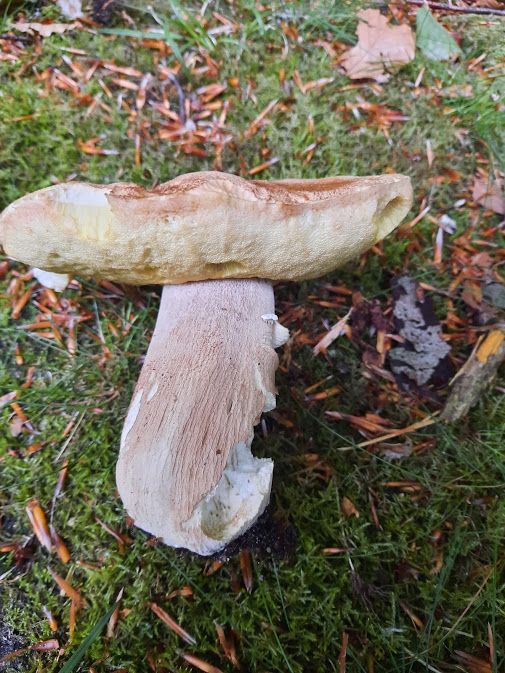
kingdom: Fungi
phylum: Basidiomycota
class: Agaricomycetes
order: Boletales
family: Boletaceae
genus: Boletus
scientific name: Boletus reticulatus
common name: sommer-rørhat
